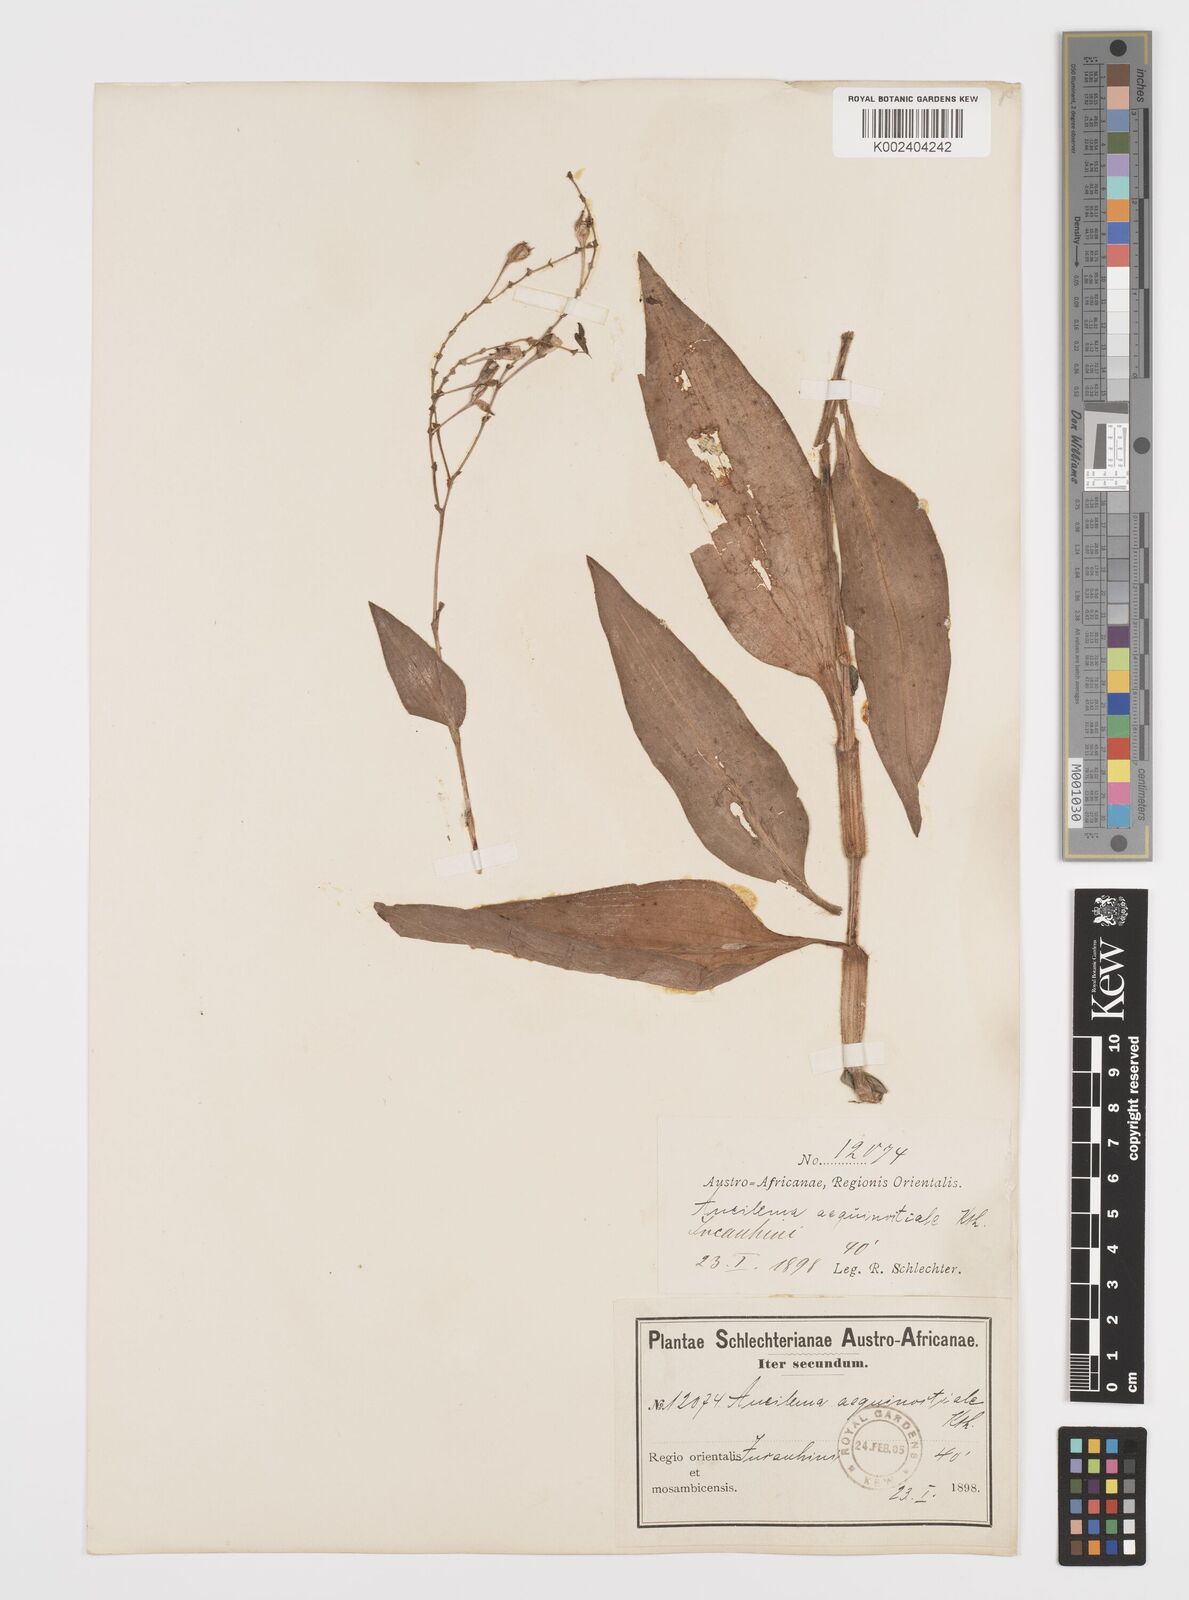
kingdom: Plantae
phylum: Tracheophyta
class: Liliopsida
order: Commelinales
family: Commelinaceae
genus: Aneilema
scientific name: Aneilema aequinoctiale
